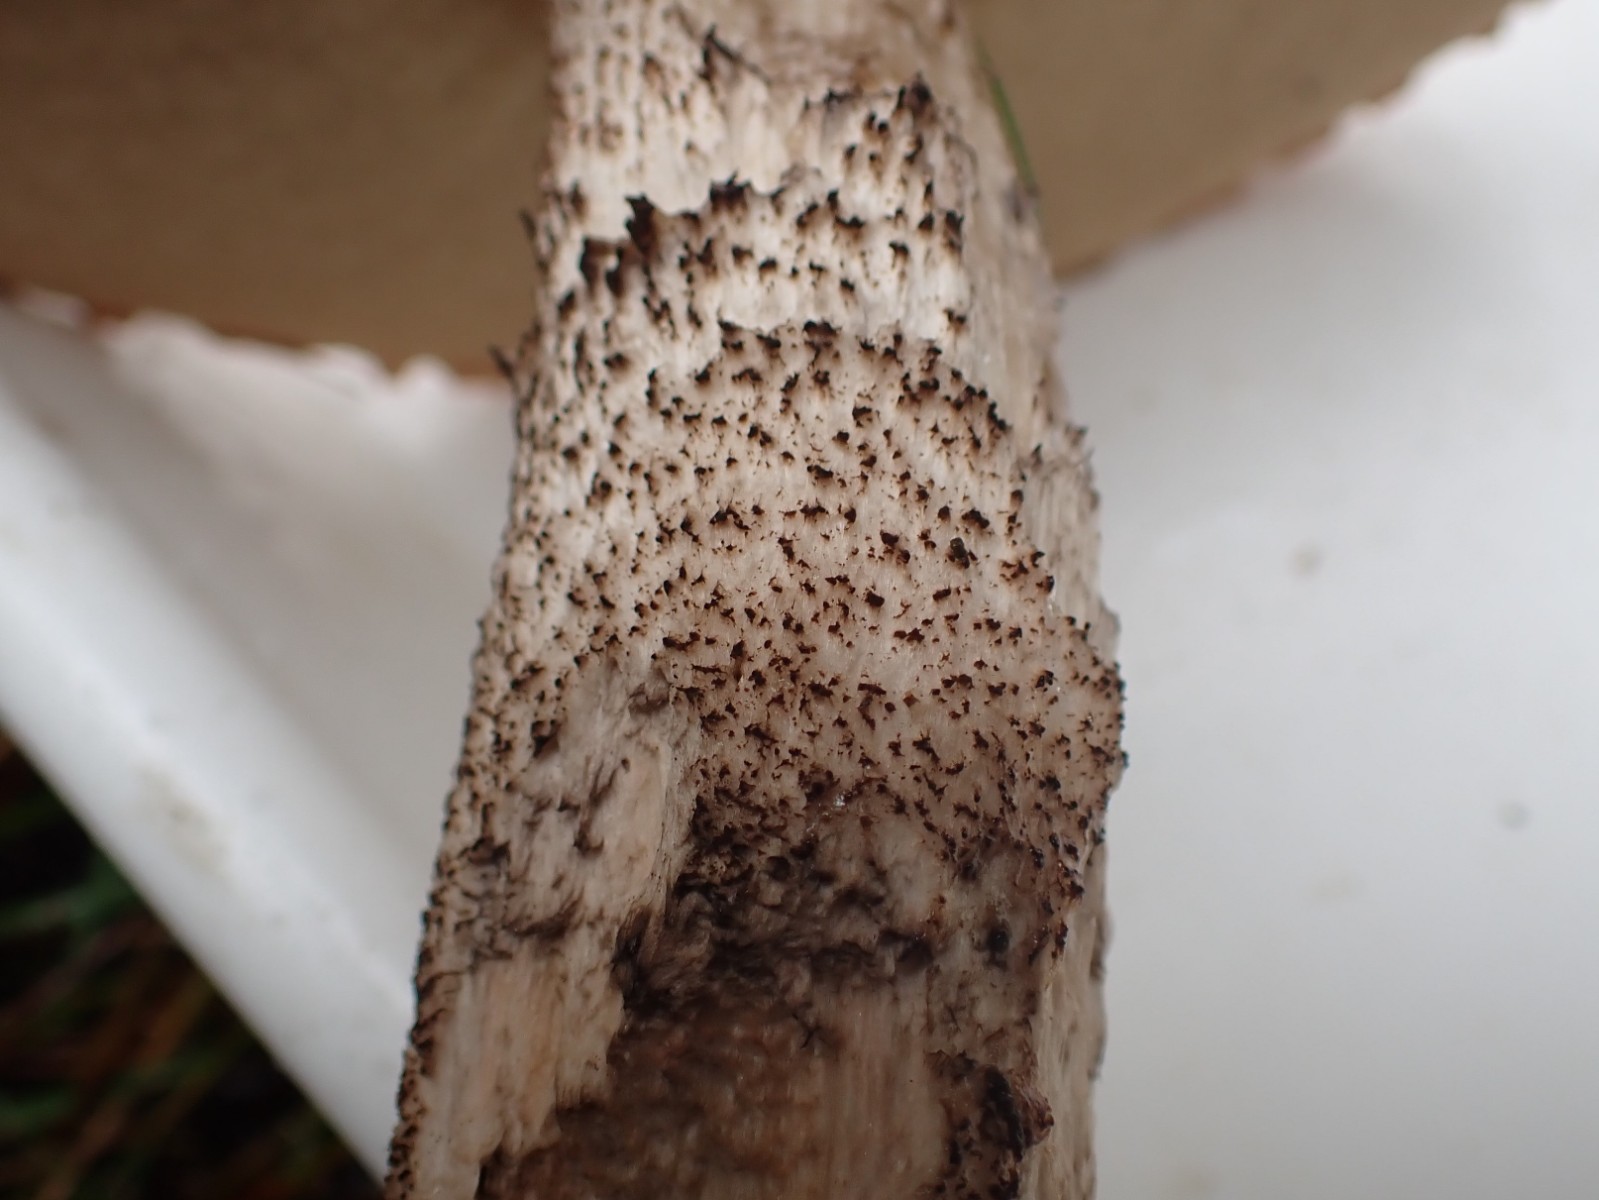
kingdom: Fungi
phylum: Basidiomycota
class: Agaricomycetes
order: Boletales
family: Boletaceae
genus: Leccinum
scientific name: Leccinum aurantiacum
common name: rustrød skælrørhat
